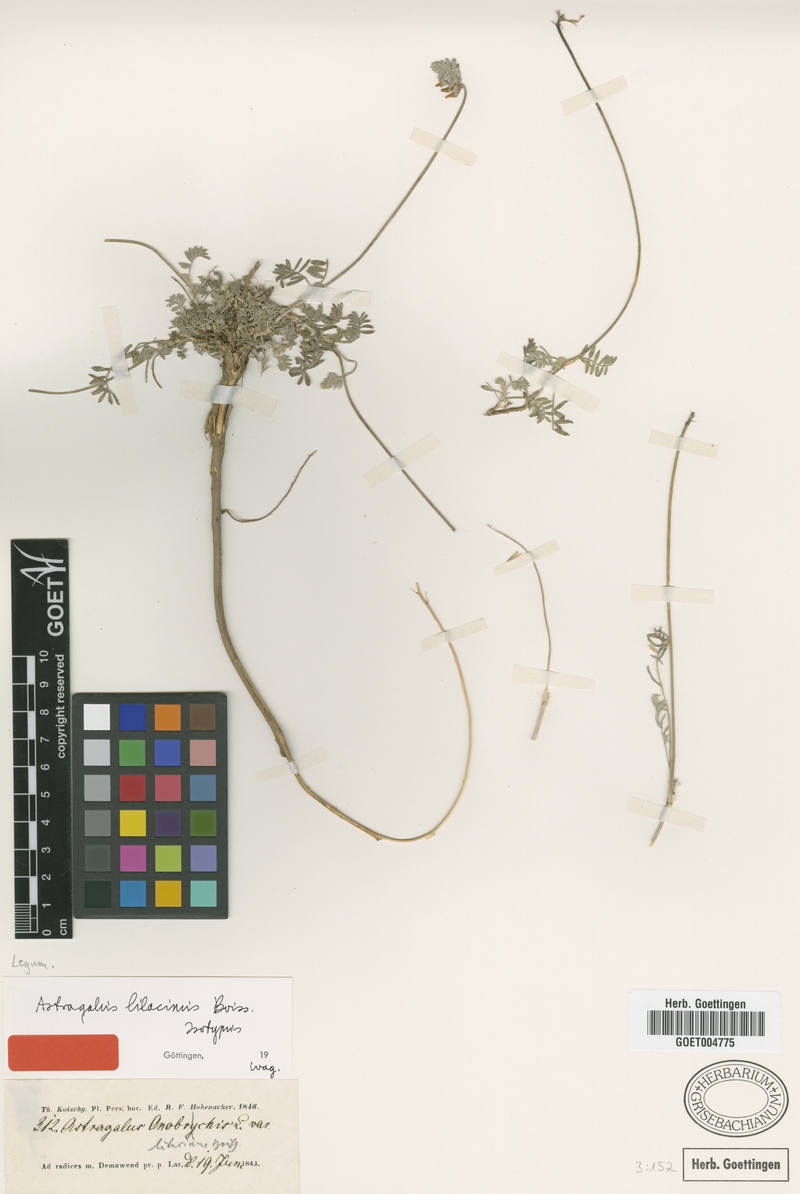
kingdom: Plantae
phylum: Tracheophyta
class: Magnoliopsida
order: Fabales
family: Fabaceae
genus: Astragalus
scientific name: Astragalus lilacinus
